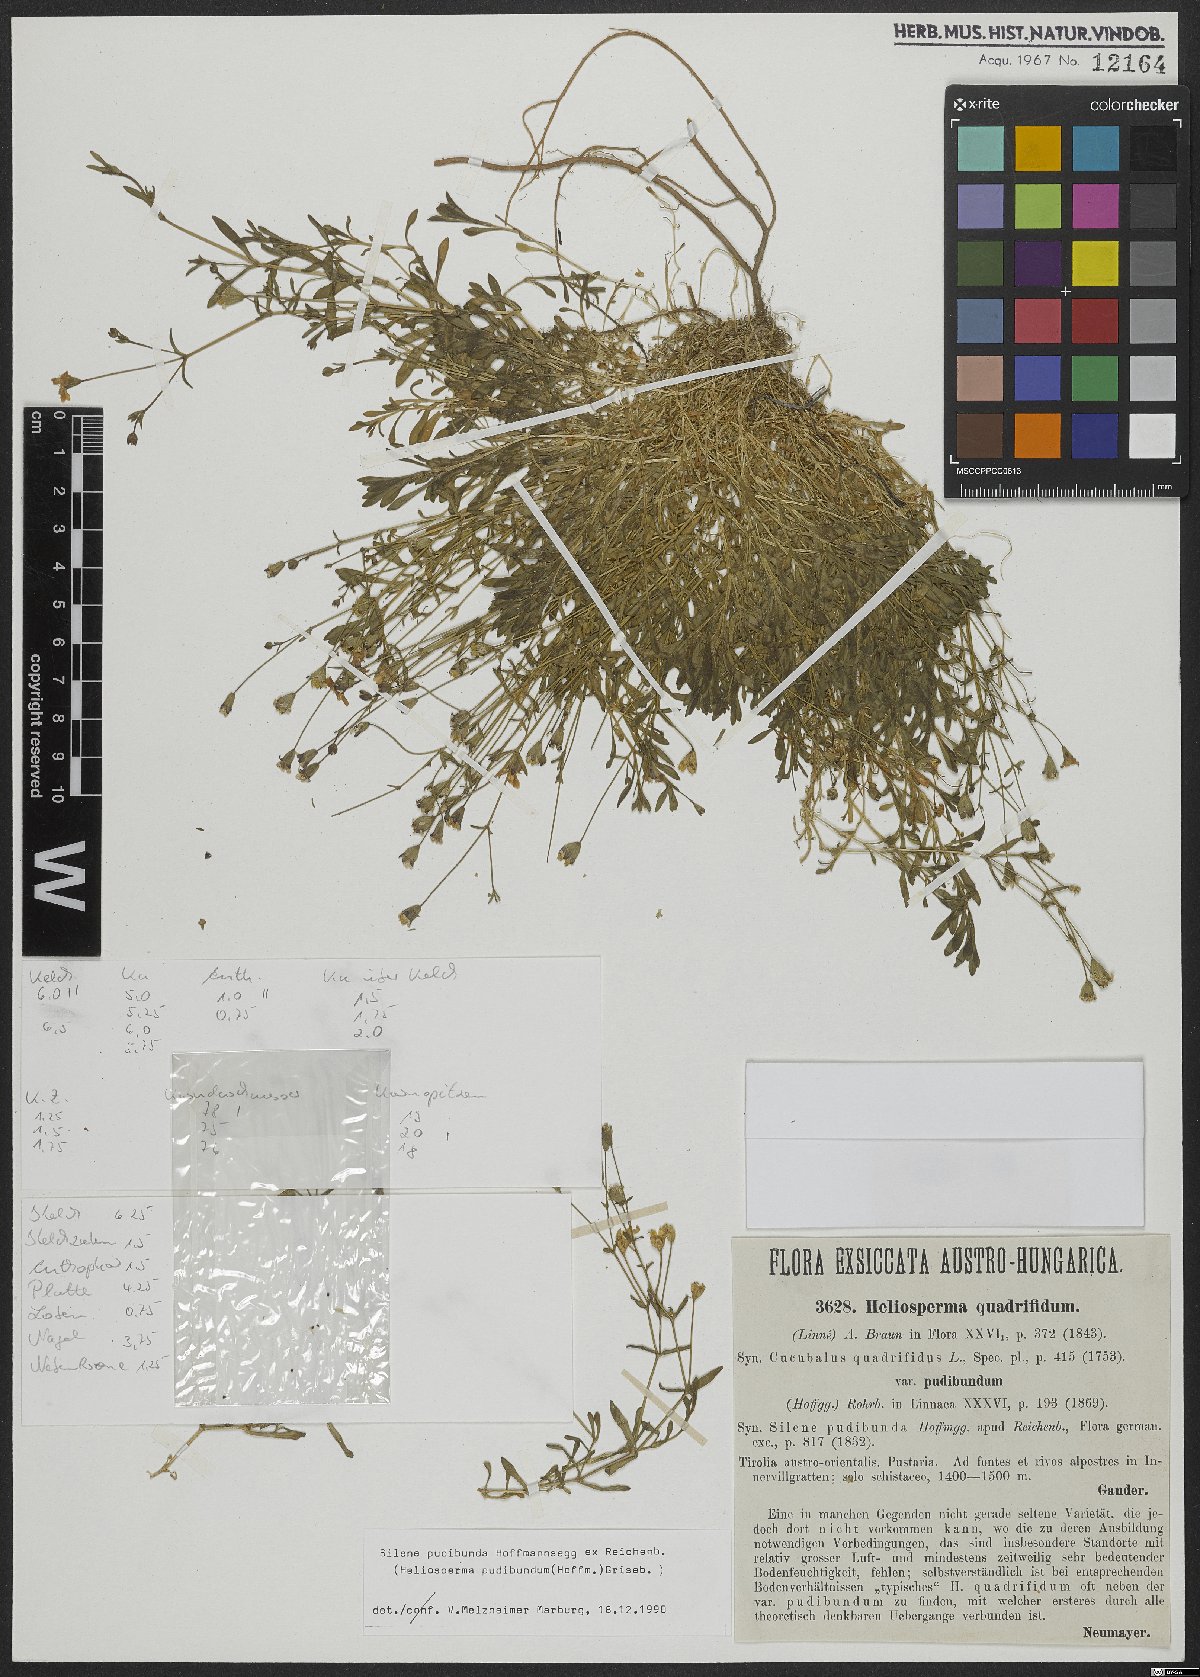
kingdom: Plantae
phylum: Tracheophyta
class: Magnoliopsida
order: Caryophyllales
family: Caryophyllaceae
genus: Heliosperma
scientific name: Heliosperma pudibundum
